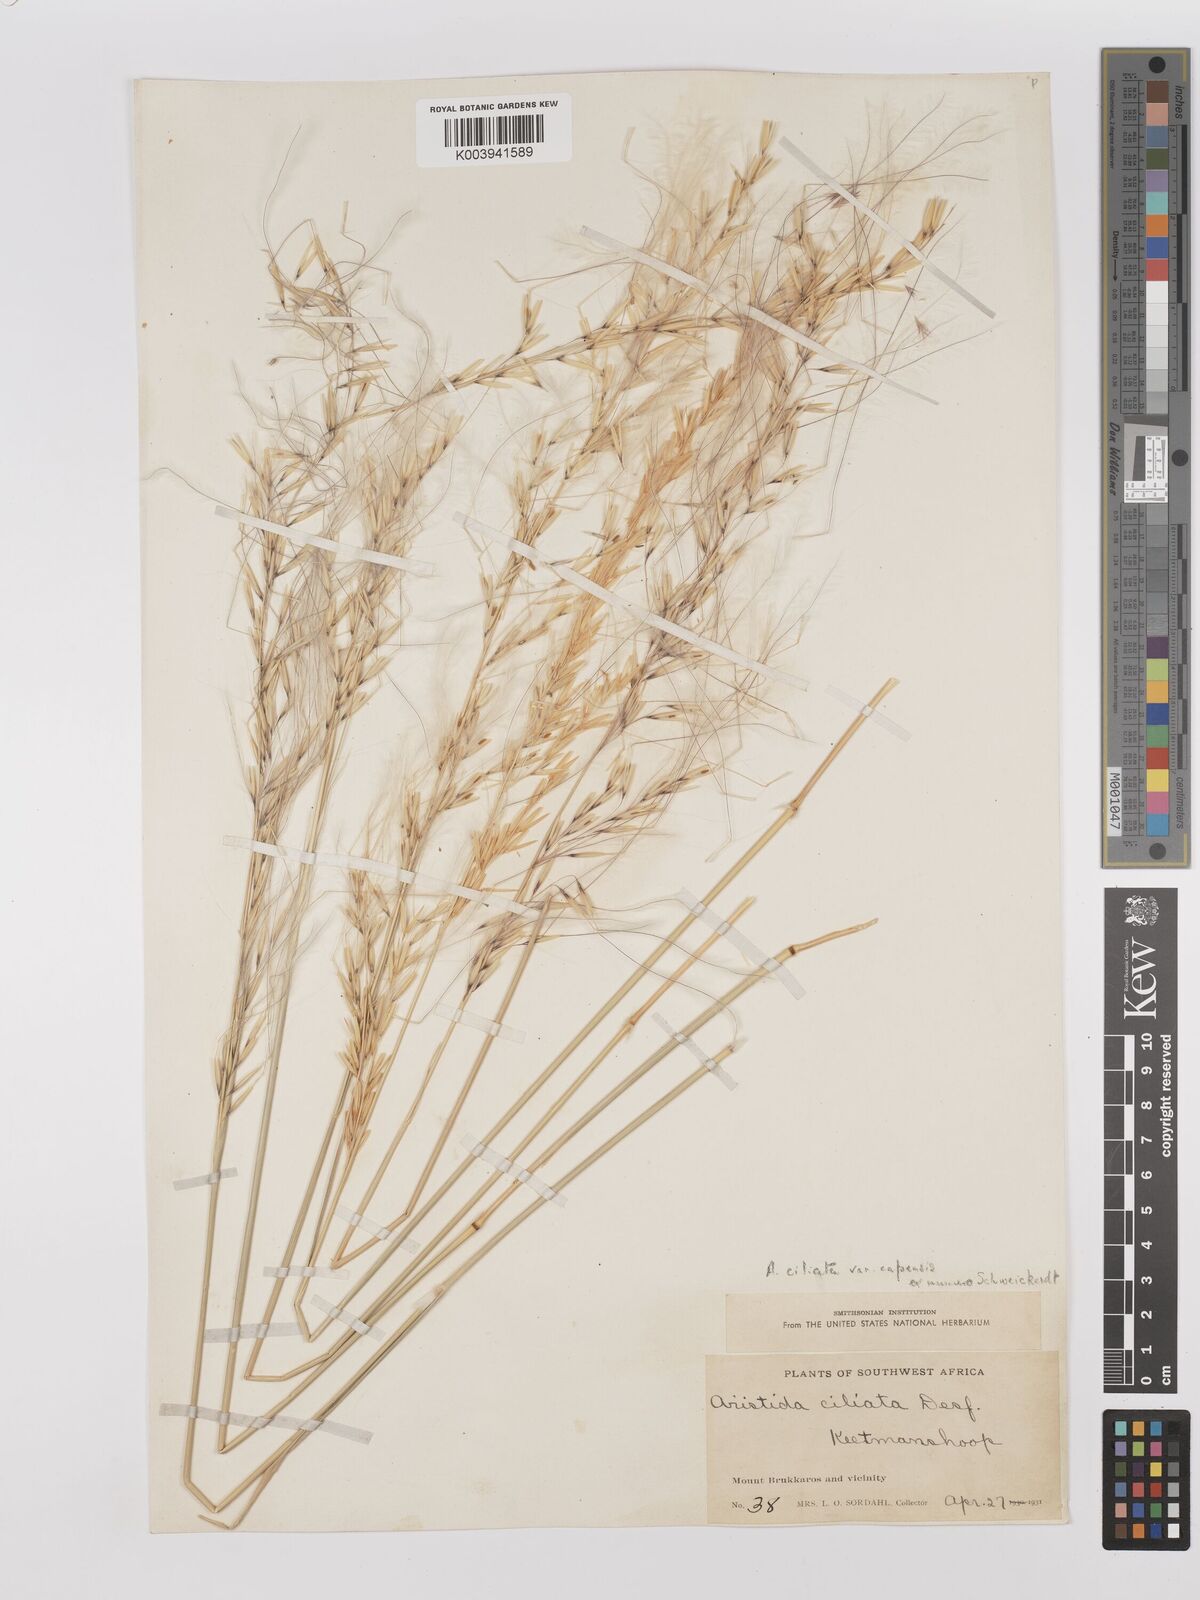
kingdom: Plantae
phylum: Tracheophyta
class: Liliopsida
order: Poales
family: Poaceae
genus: Stipagrostis
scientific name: Stipagrostis ciliata
